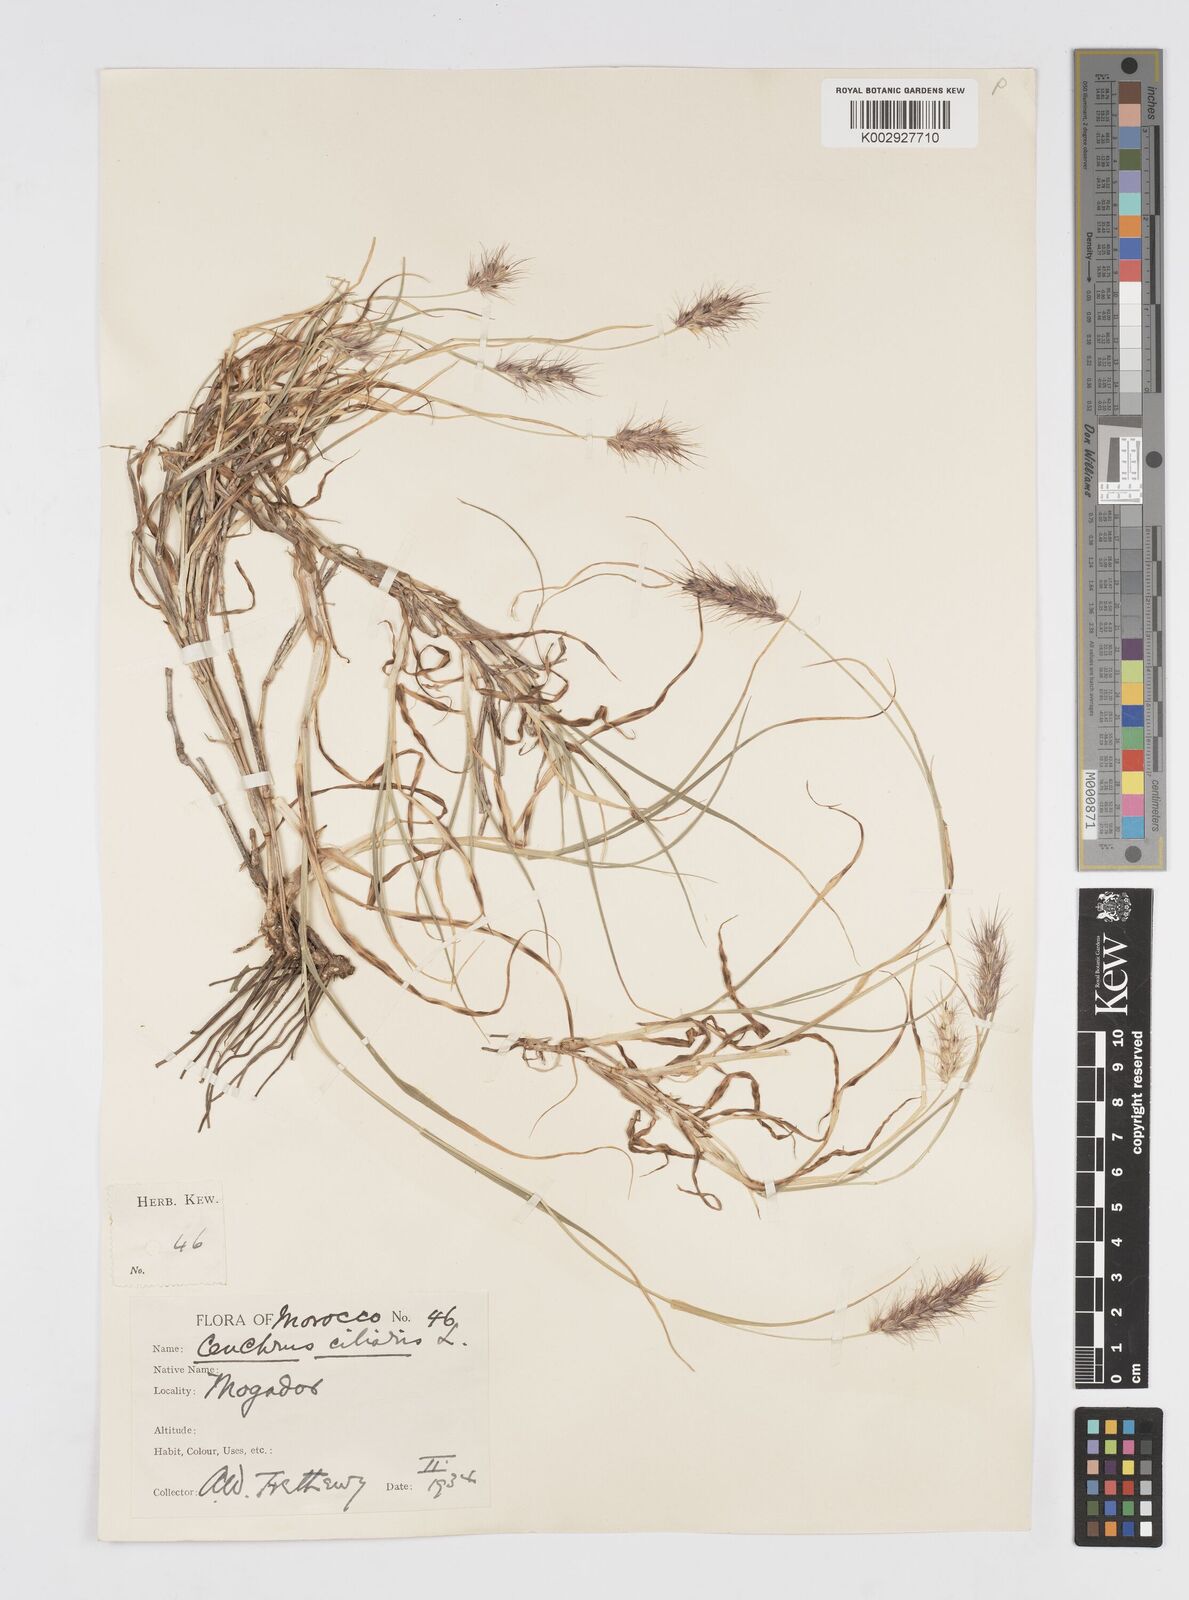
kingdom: Plantae
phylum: Tracheophyta
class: Liliopsida
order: Poales
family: Poaceae
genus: Cenchrus
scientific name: Cenchrus ciliaris
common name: Buffelgrass
